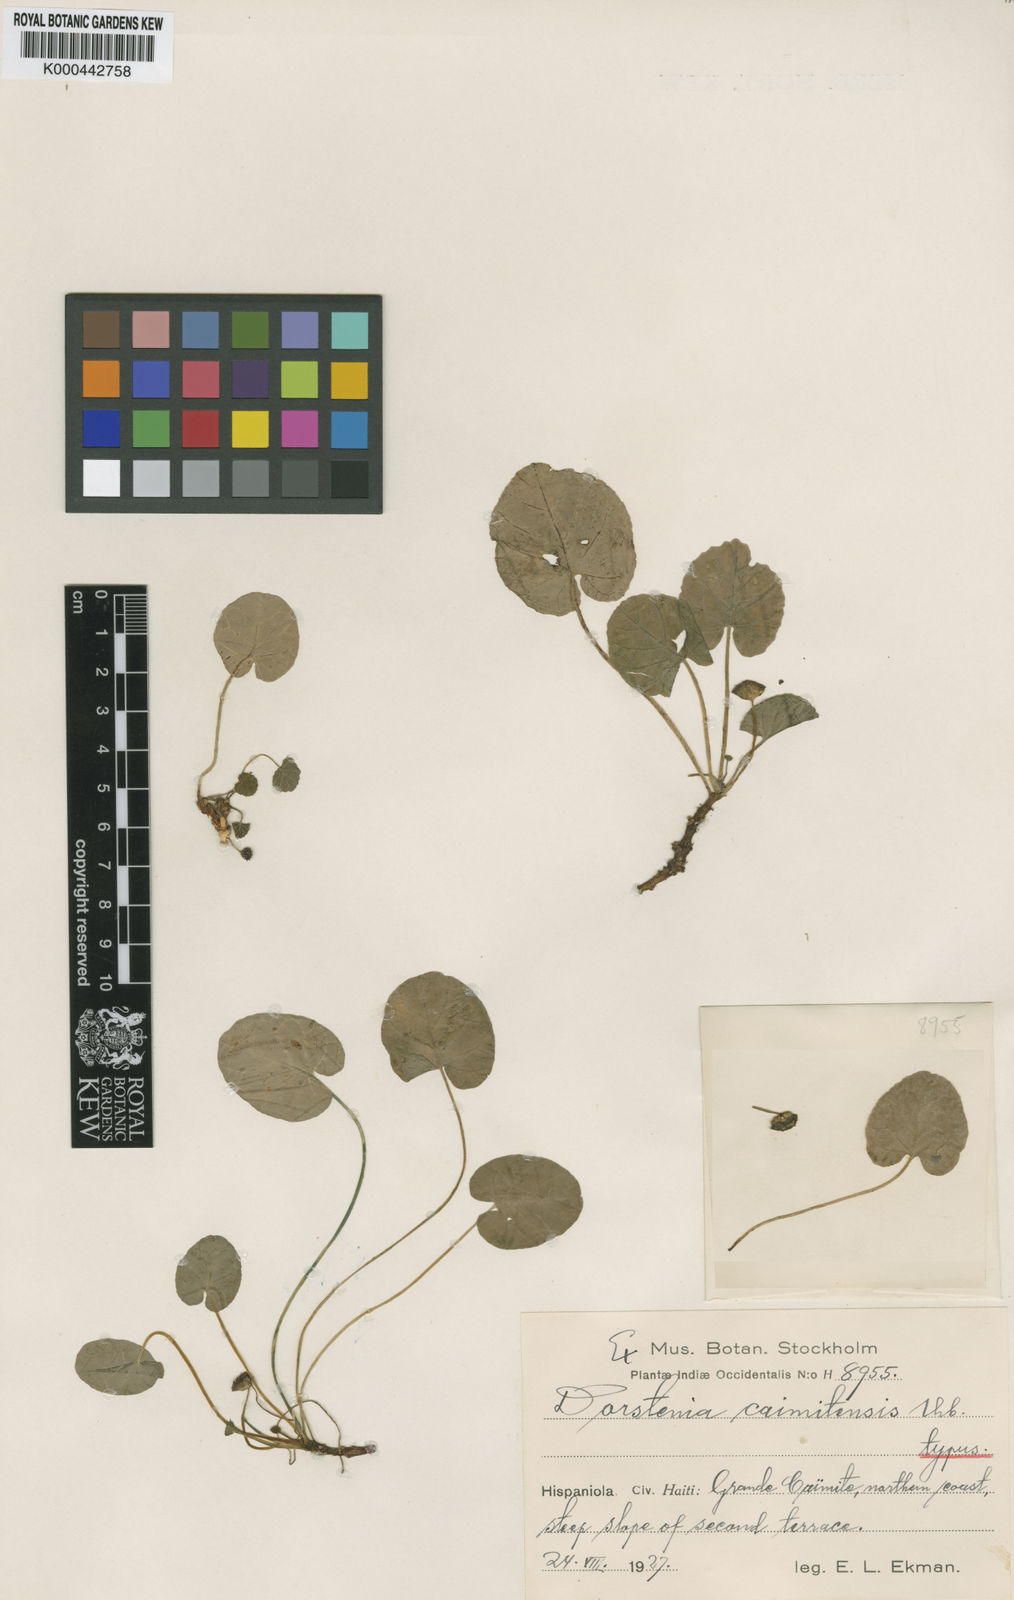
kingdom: Plantae
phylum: Tracheophyta
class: Magnoliopsida
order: Rosales
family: Moraceae
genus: Dorstenia
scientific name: Dorstenia caimitensis
